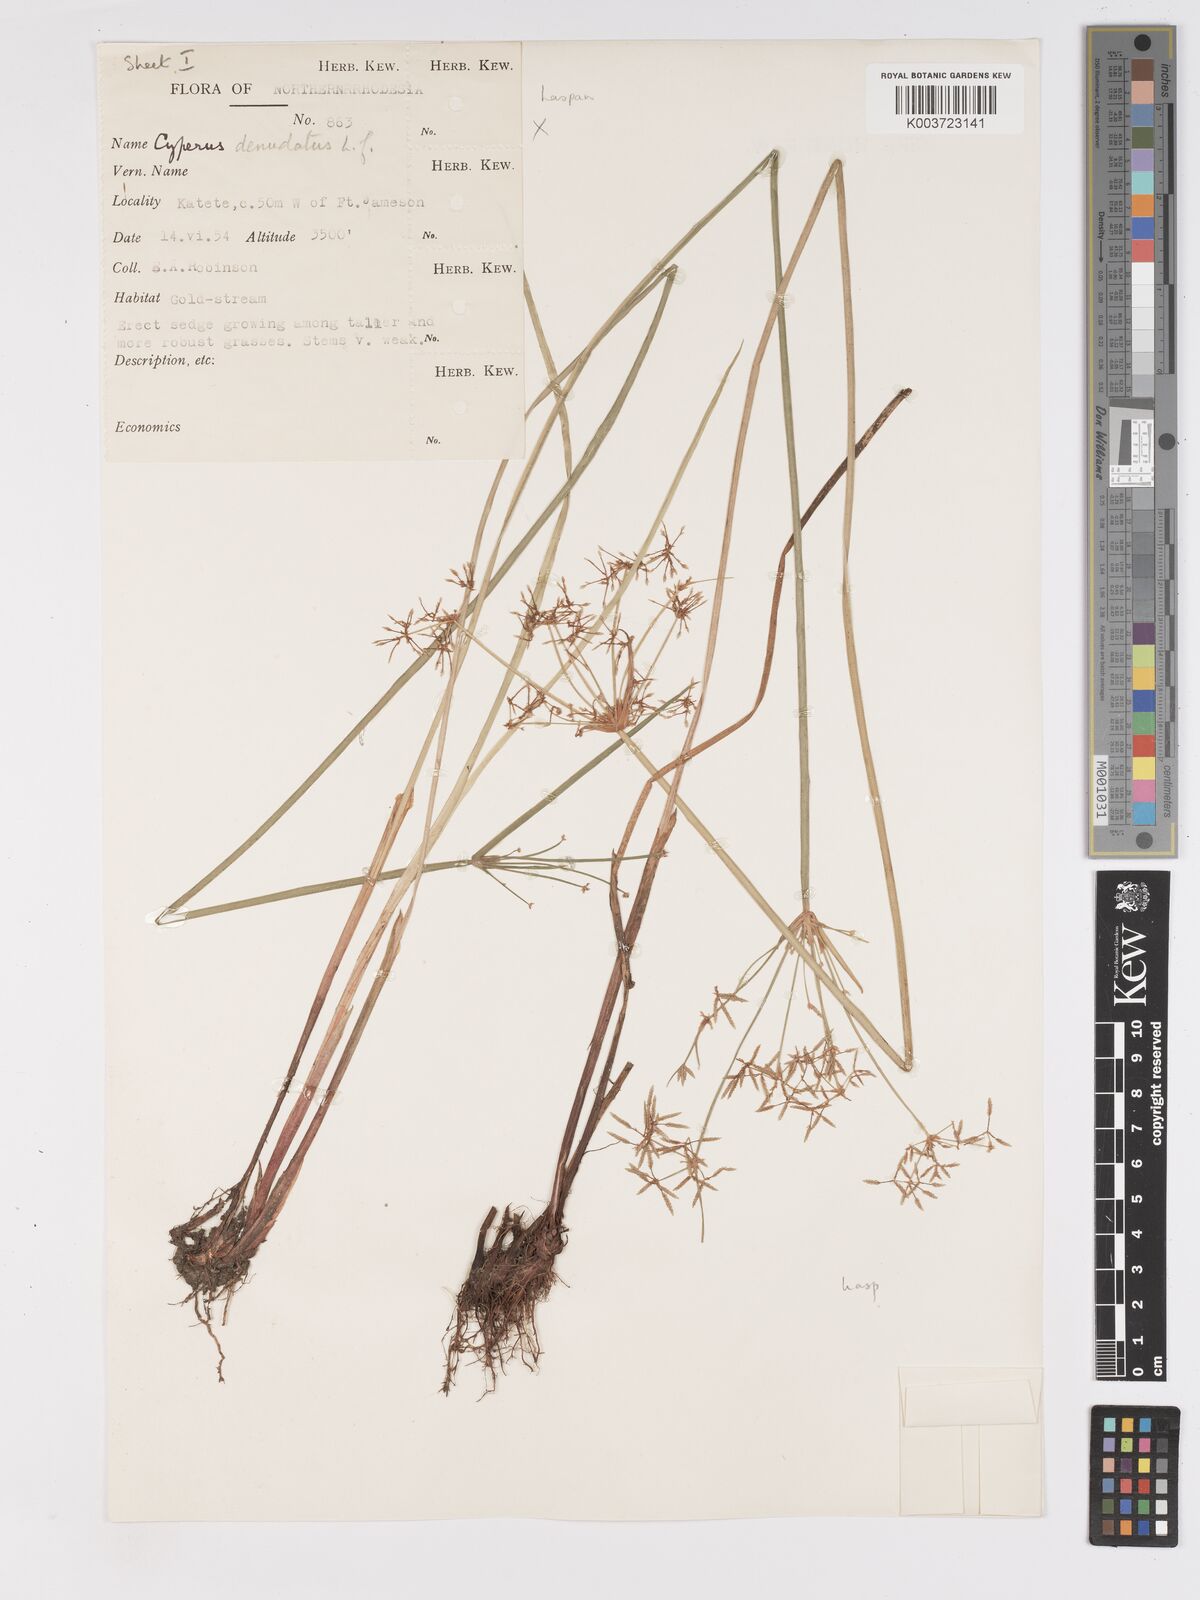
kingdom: Plantae
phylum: Tracheophyta
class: Liliopsida
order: Poales
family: Cyperaceae
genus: Cyperus
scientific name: Cyperus haspan
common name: Haspan flatsedge
